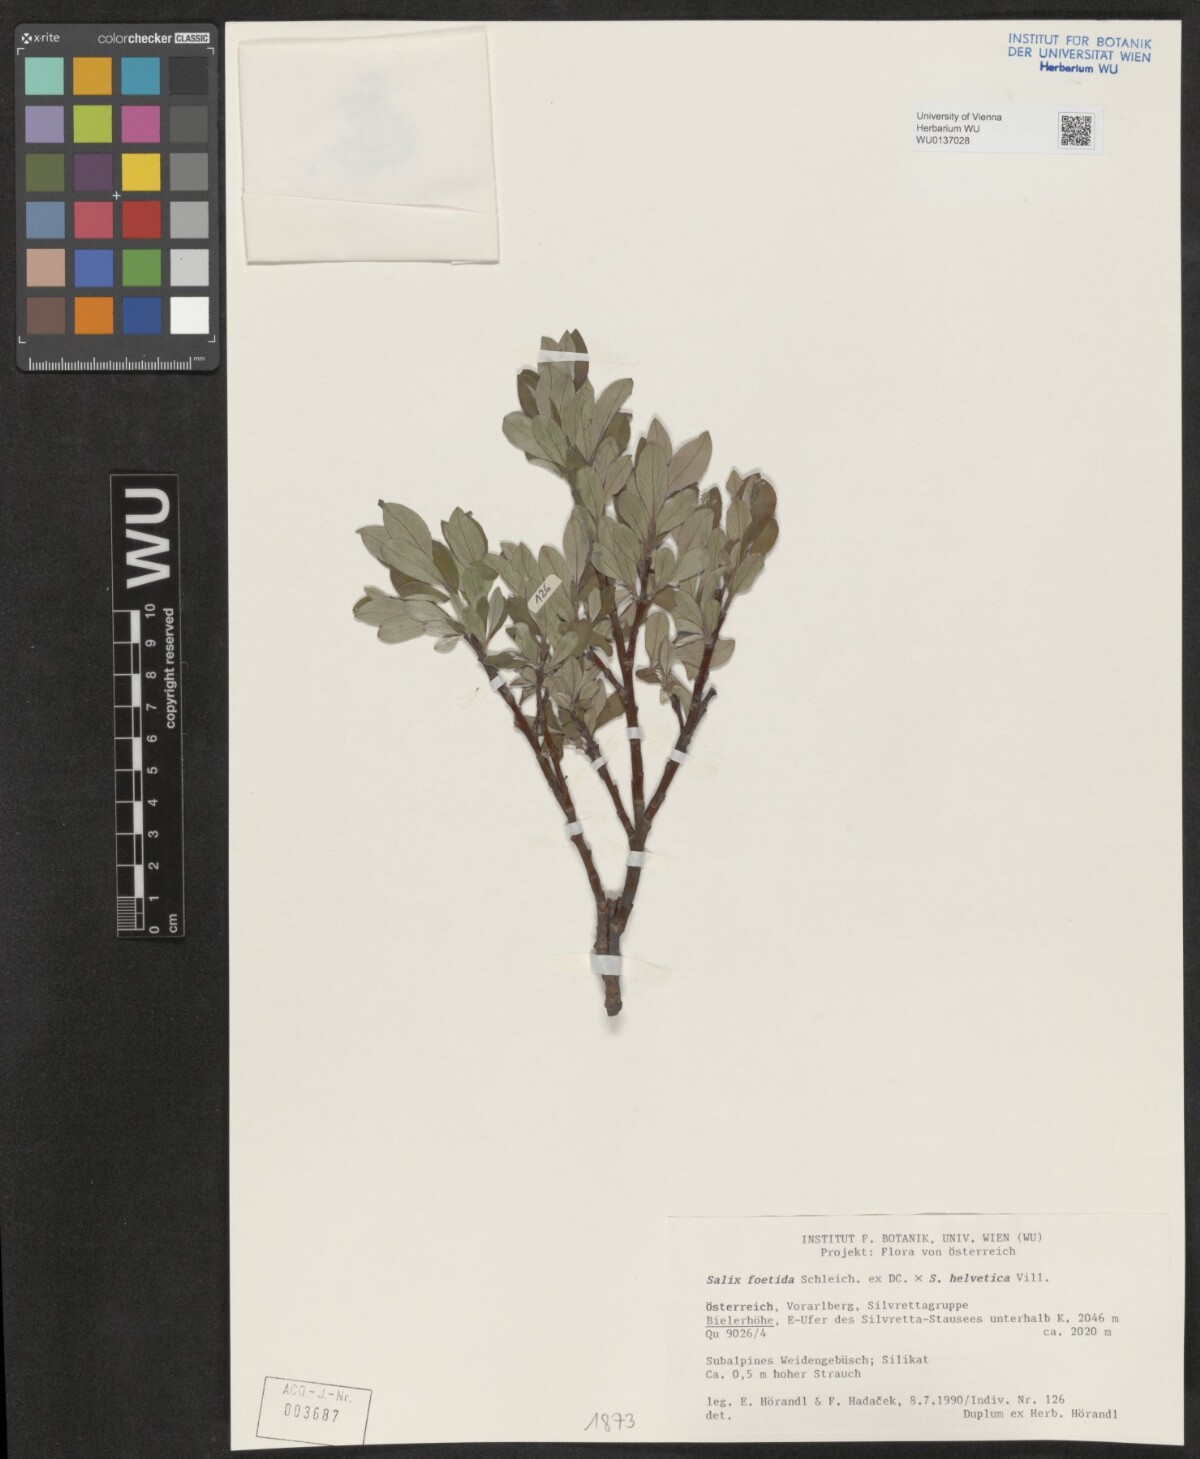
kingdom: Plantae
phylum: Tracheophyta
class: Magnoliopsida
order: Malpighiales
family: Salicaceae
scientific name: Salicaceae
